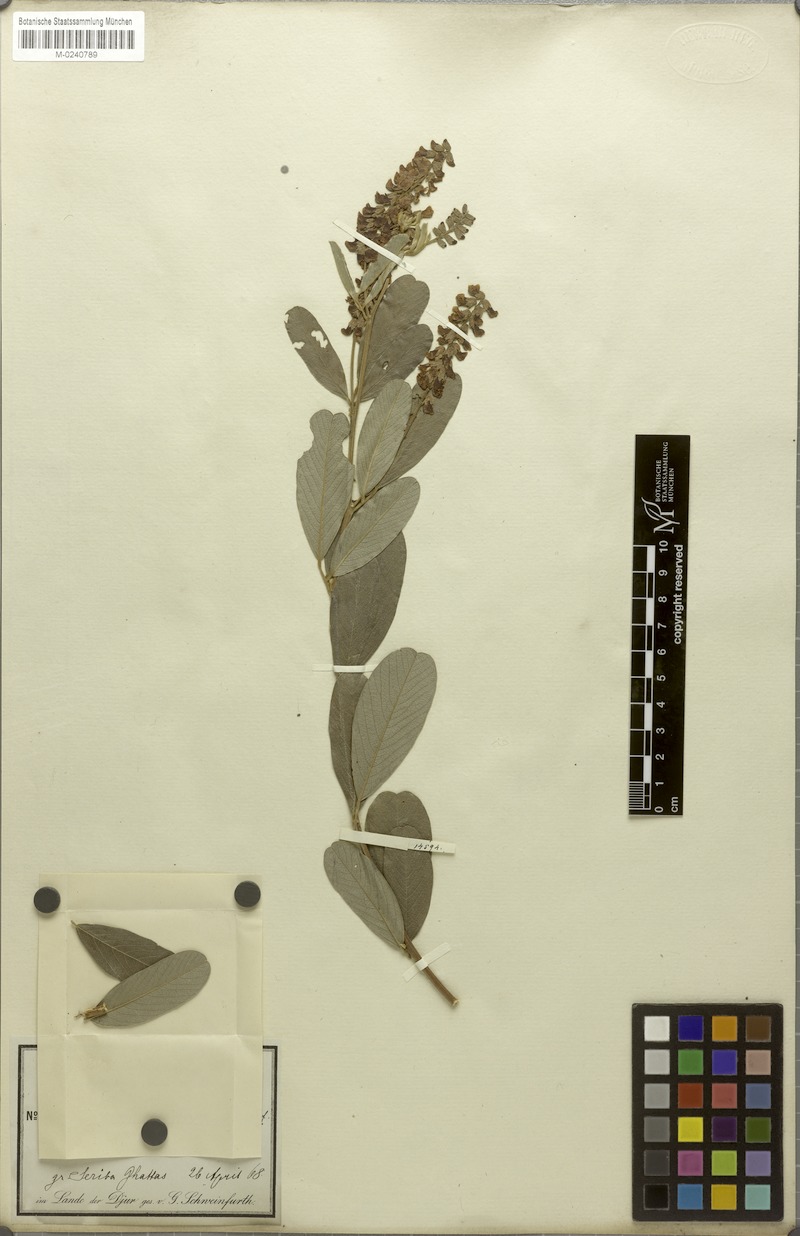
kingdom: Plantae
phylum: Tracheophyta
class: Magnoliopsida
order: Fabales
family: Fabaceae
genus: Eriosema
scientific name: Eriosema psoraleoides
